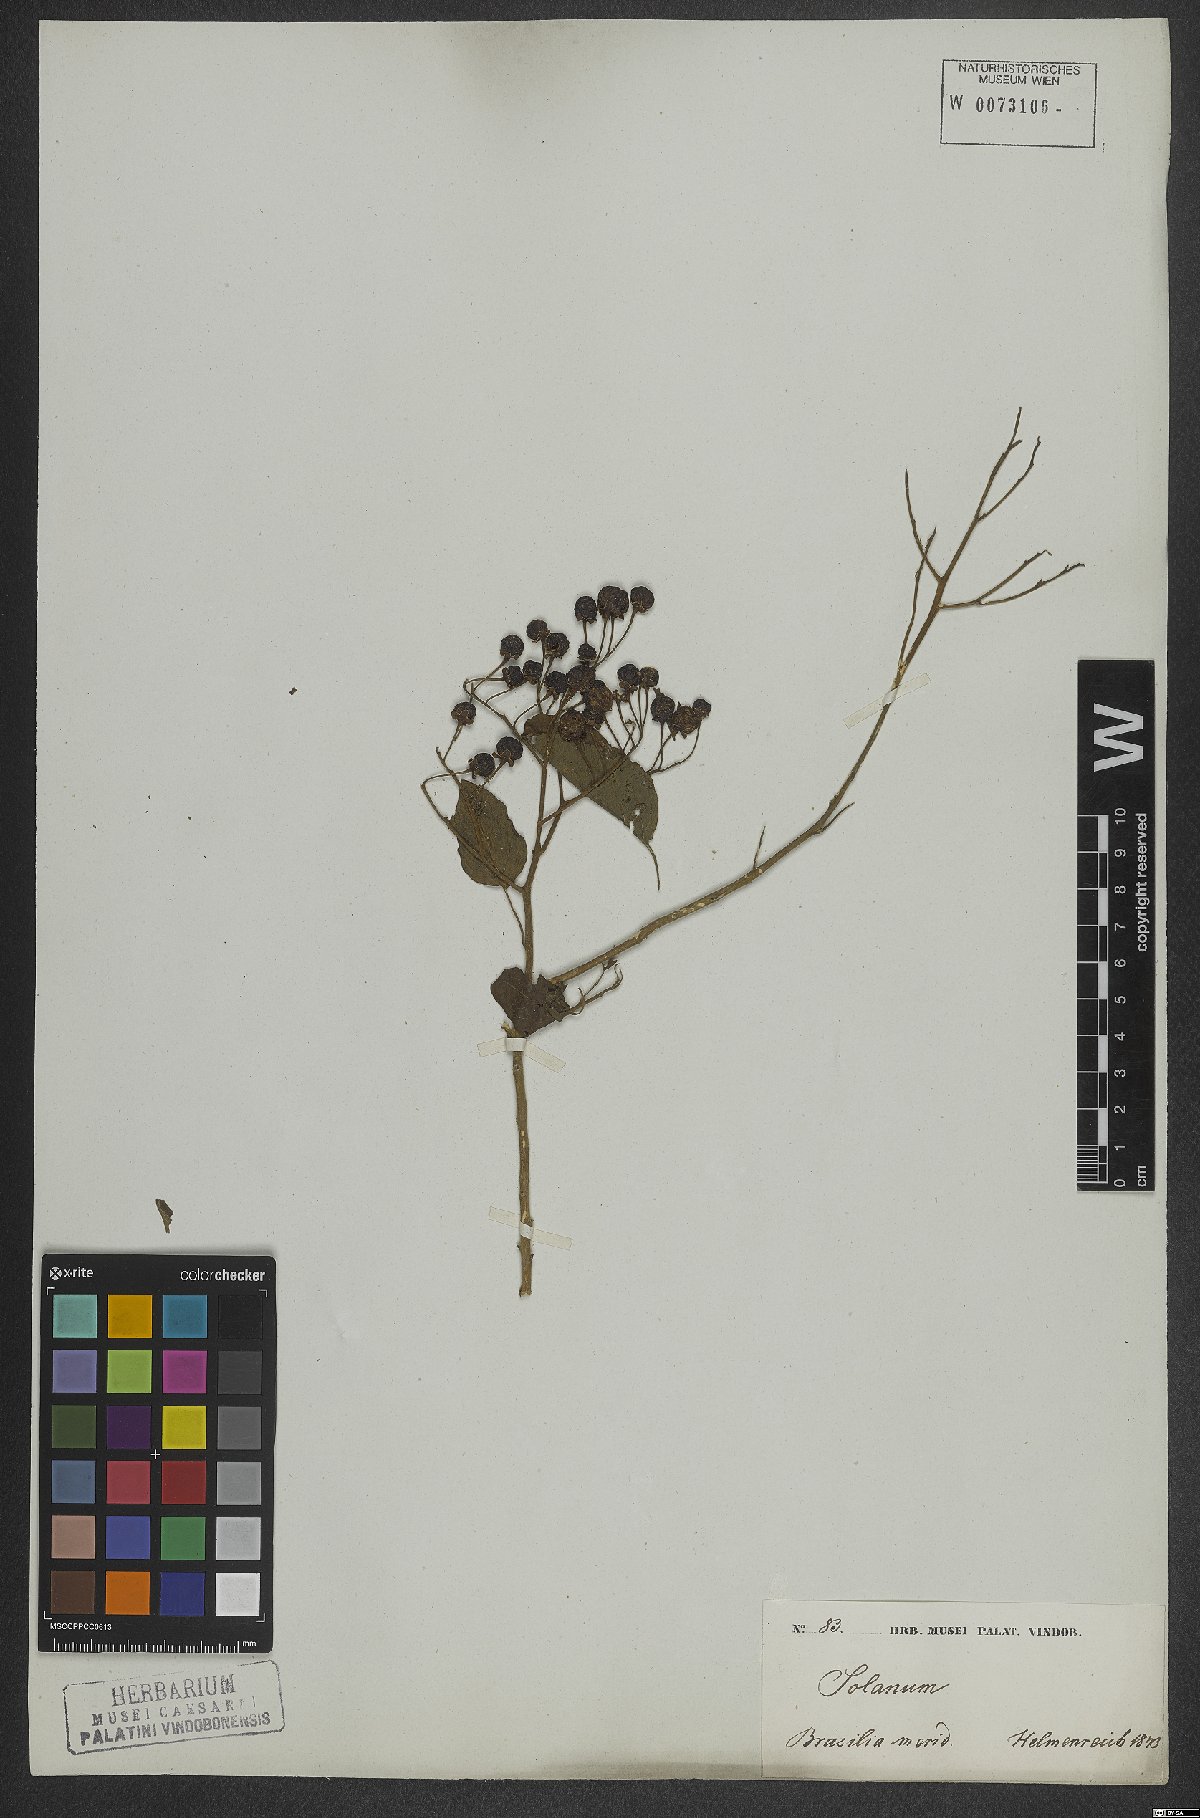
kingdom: Plantae
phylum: Tracheophyta
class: Magnoliopsida
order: Solanales
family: Solanaceae
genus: Solanum
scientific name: Solanum flaccidum
